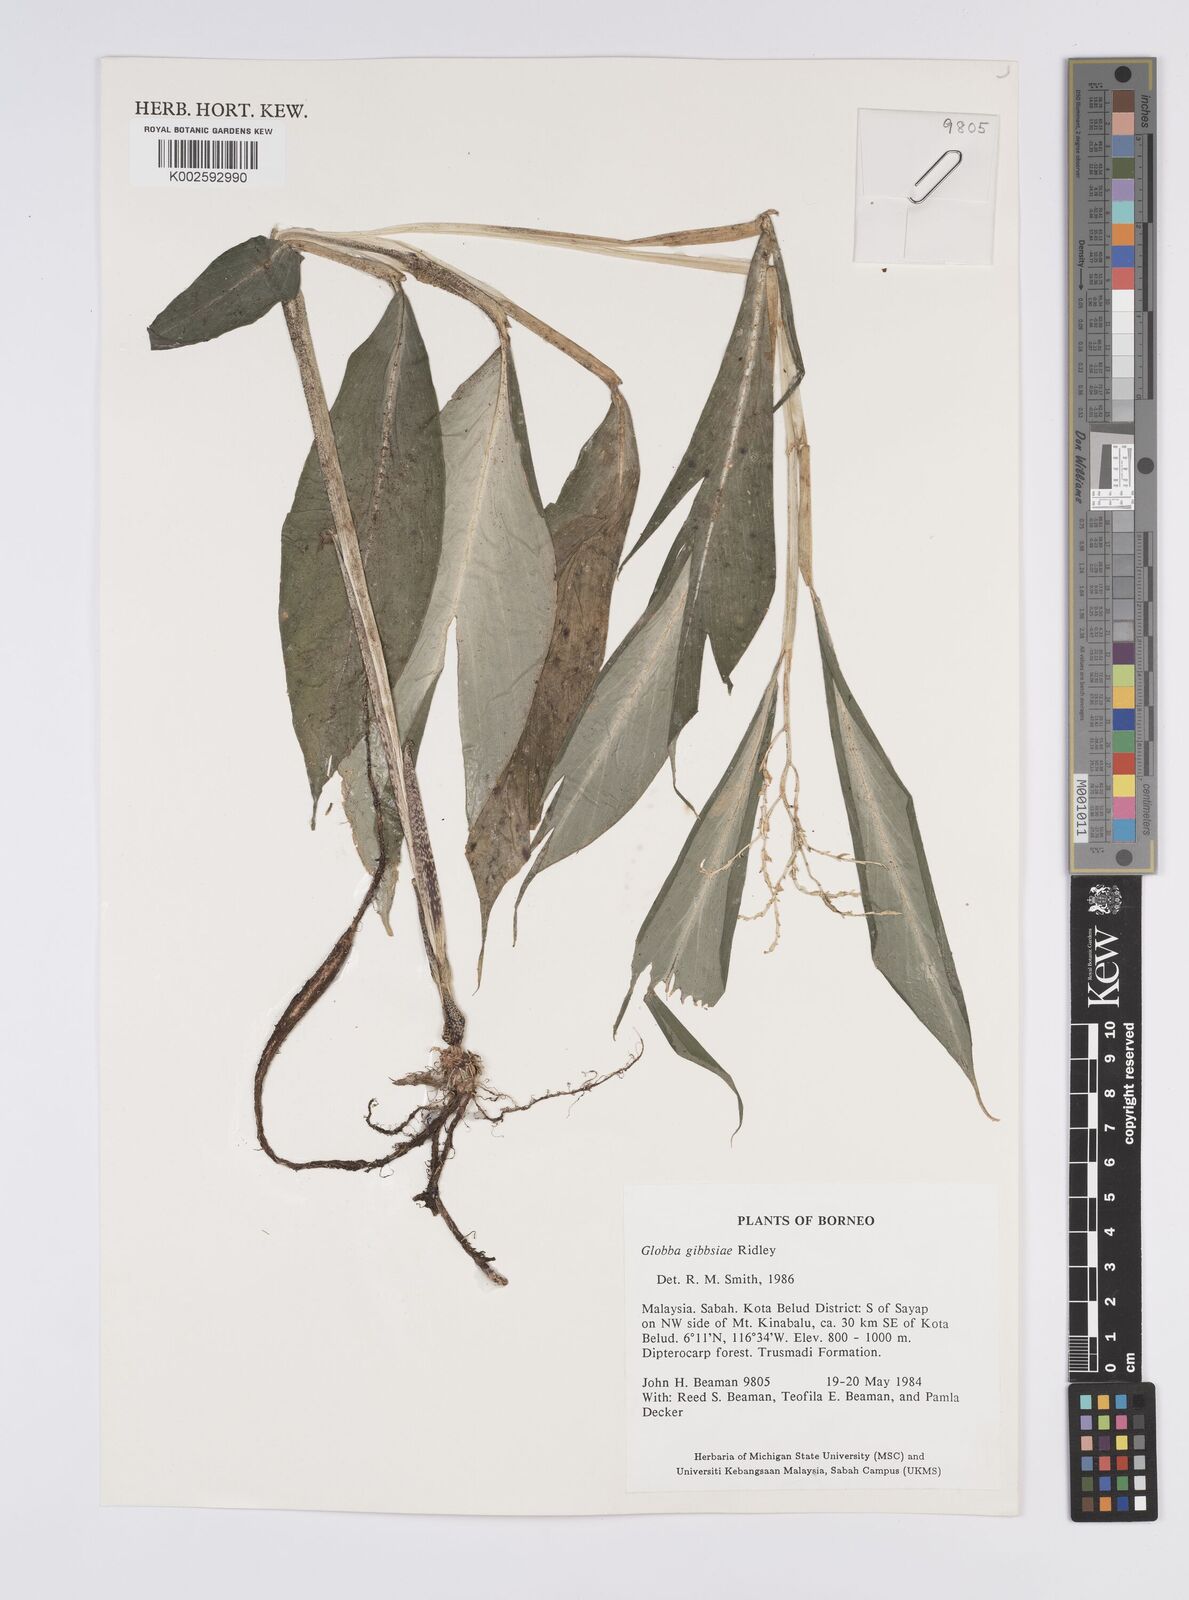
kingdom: Plantae
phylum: Tracheophyta
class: Liliopsida
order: Zingiberales
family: Zingiberaceae
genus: Globba
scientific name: Globba tricolor
